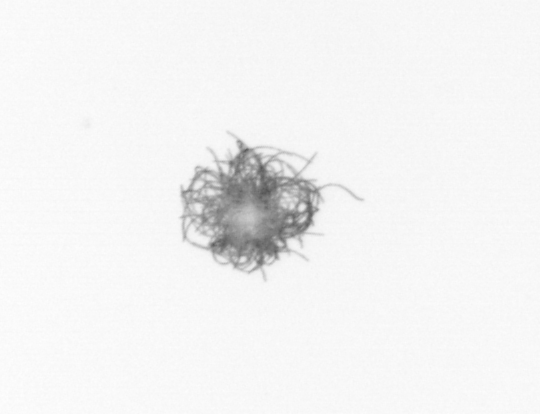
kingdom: Bacteria
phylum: Cyanobacteria
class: Cyanobacteriia
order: Cyanobacteriales
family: Microcoleaceae
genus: Trichodesmium
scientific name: Trichodesmium
